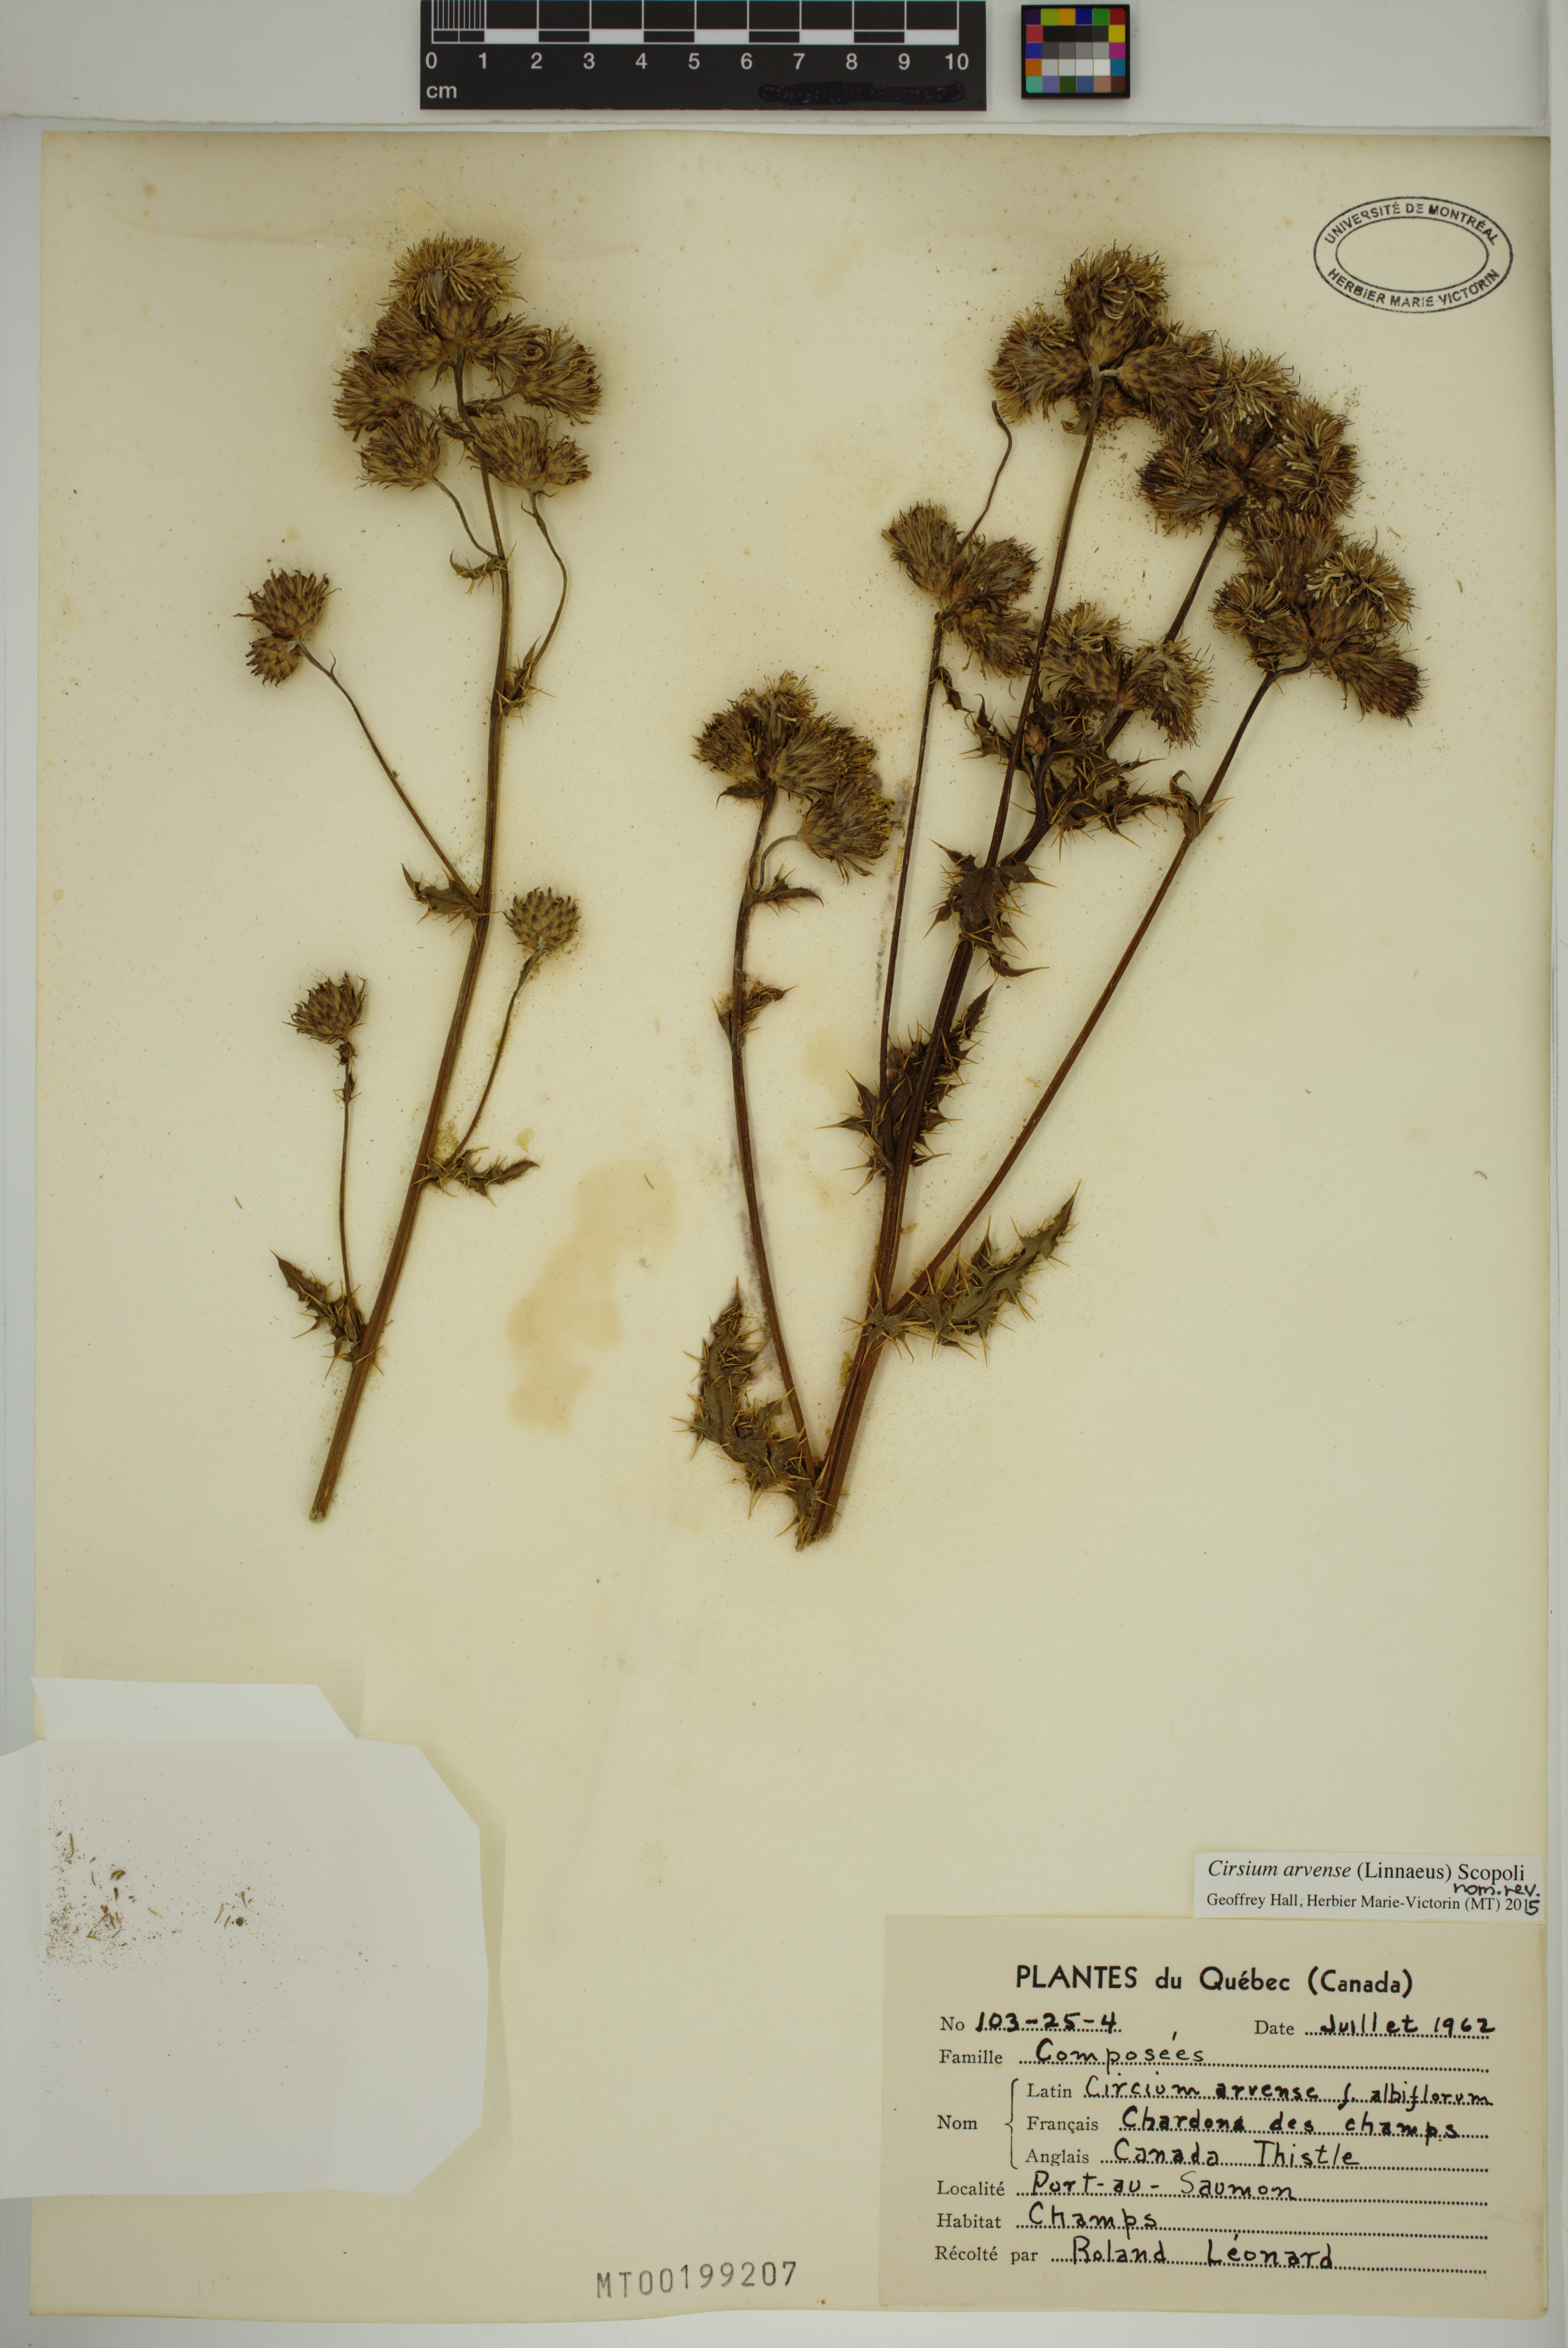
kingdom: Plantae
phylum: Tracheophyta
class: Magnoliopsida
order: Asterales
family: Asteraceae
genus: Cirsium
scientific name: Cirsium arvense
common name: Creeping thistle
